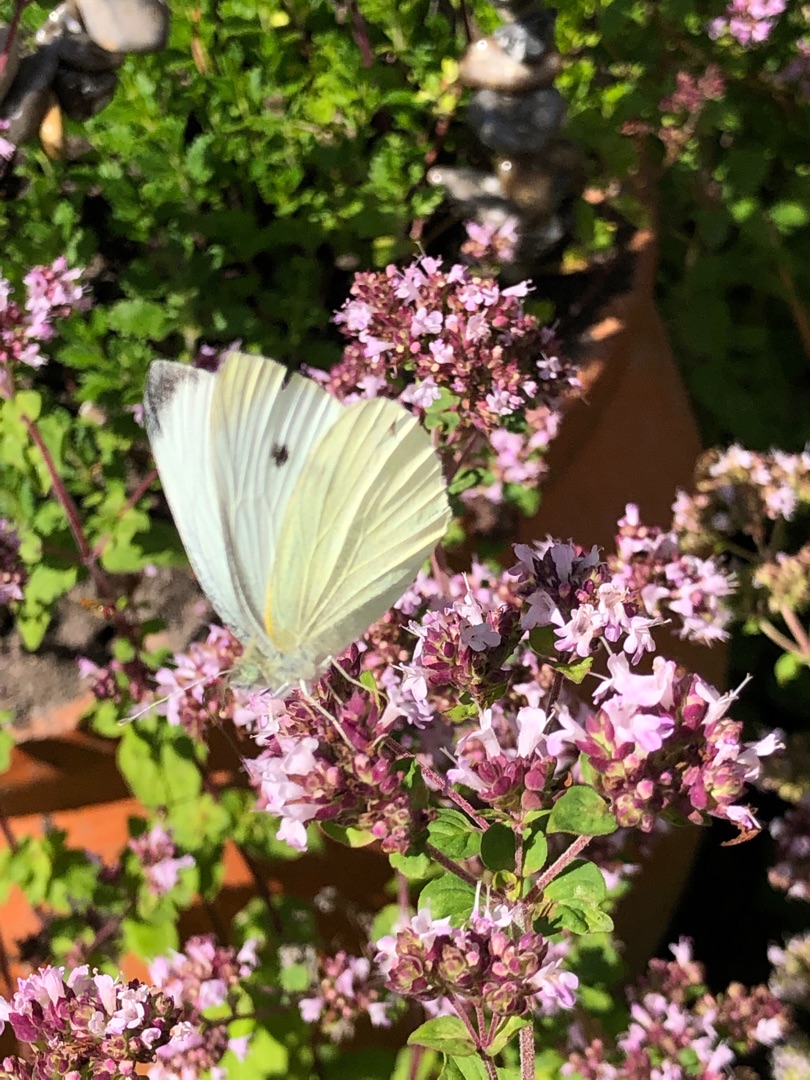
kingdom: Animalia
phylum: Arthropoda
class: Insecta
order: Lepidoptera
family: Pieridae
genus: Pieris
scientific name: Pieris rapae
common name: Lille kålsommerfugl
